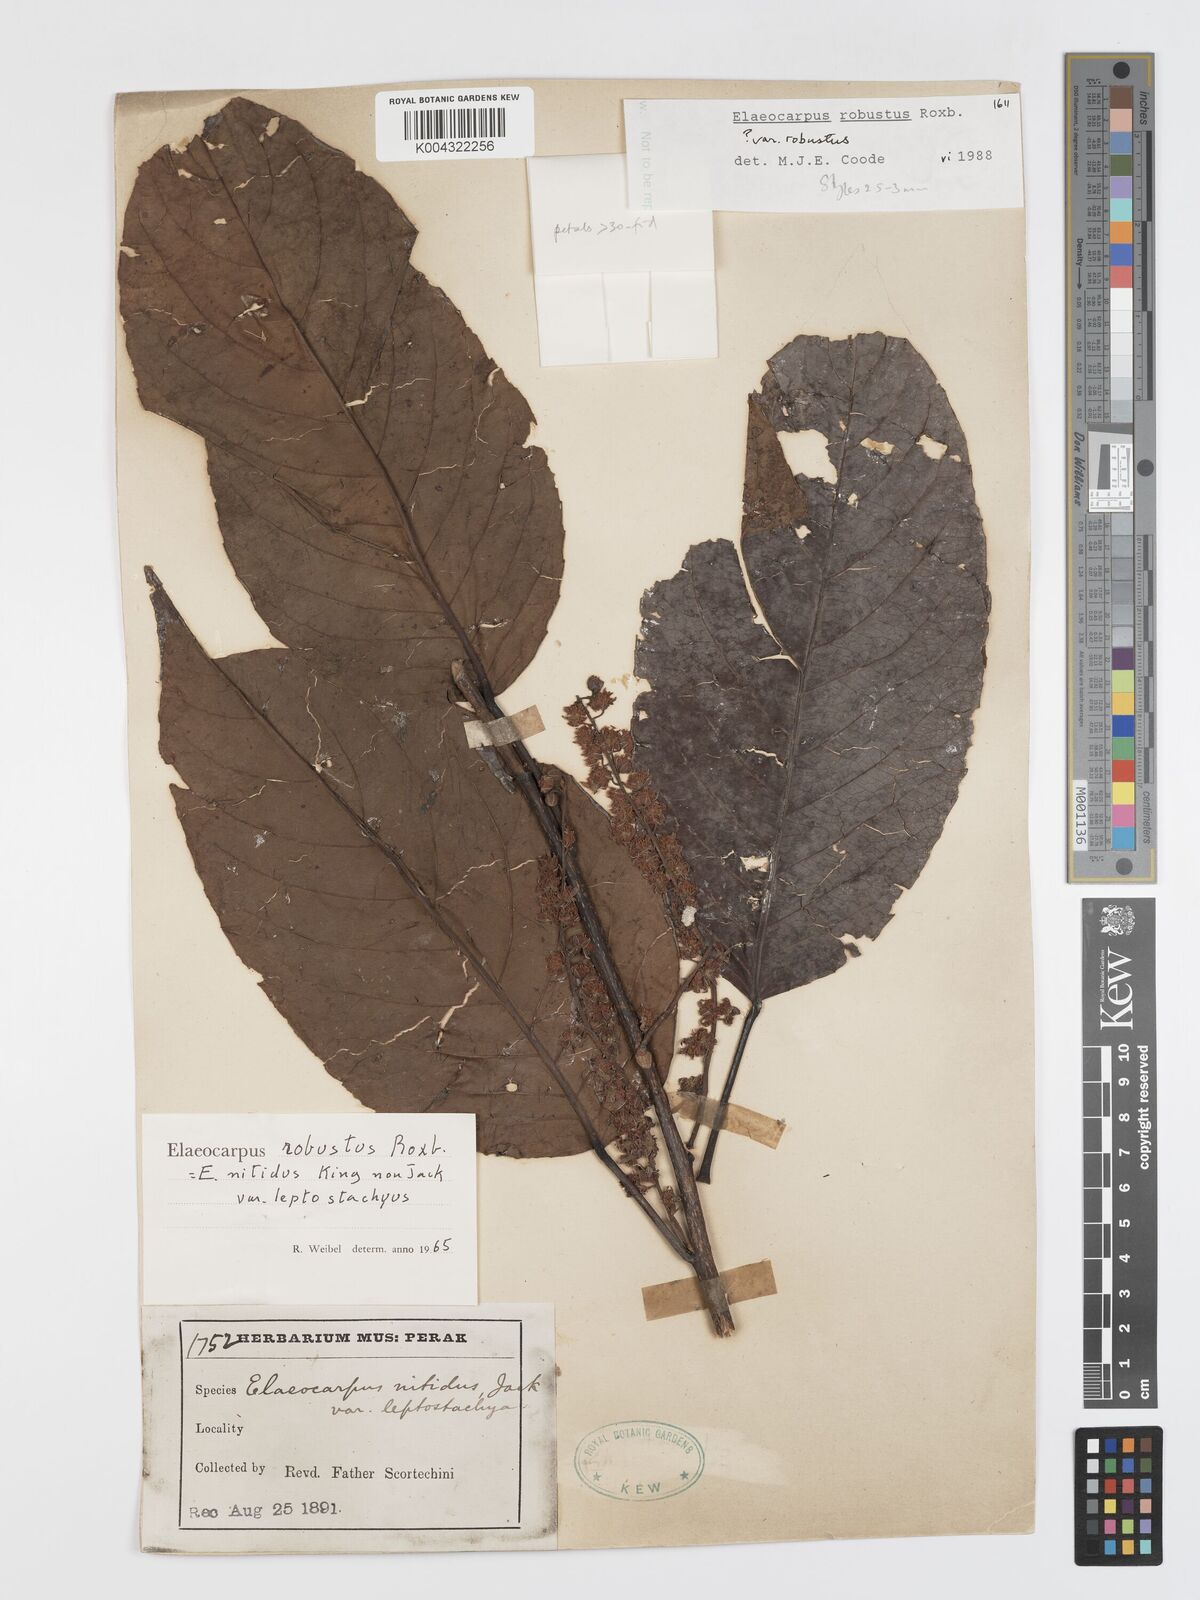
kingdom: Plantae
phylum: Tracheophyta
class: Magnoliopsida
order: Oxalidales
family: Elaeocarpaceae
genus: Elaeocarpus
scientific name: Elaeocarpus robustus
